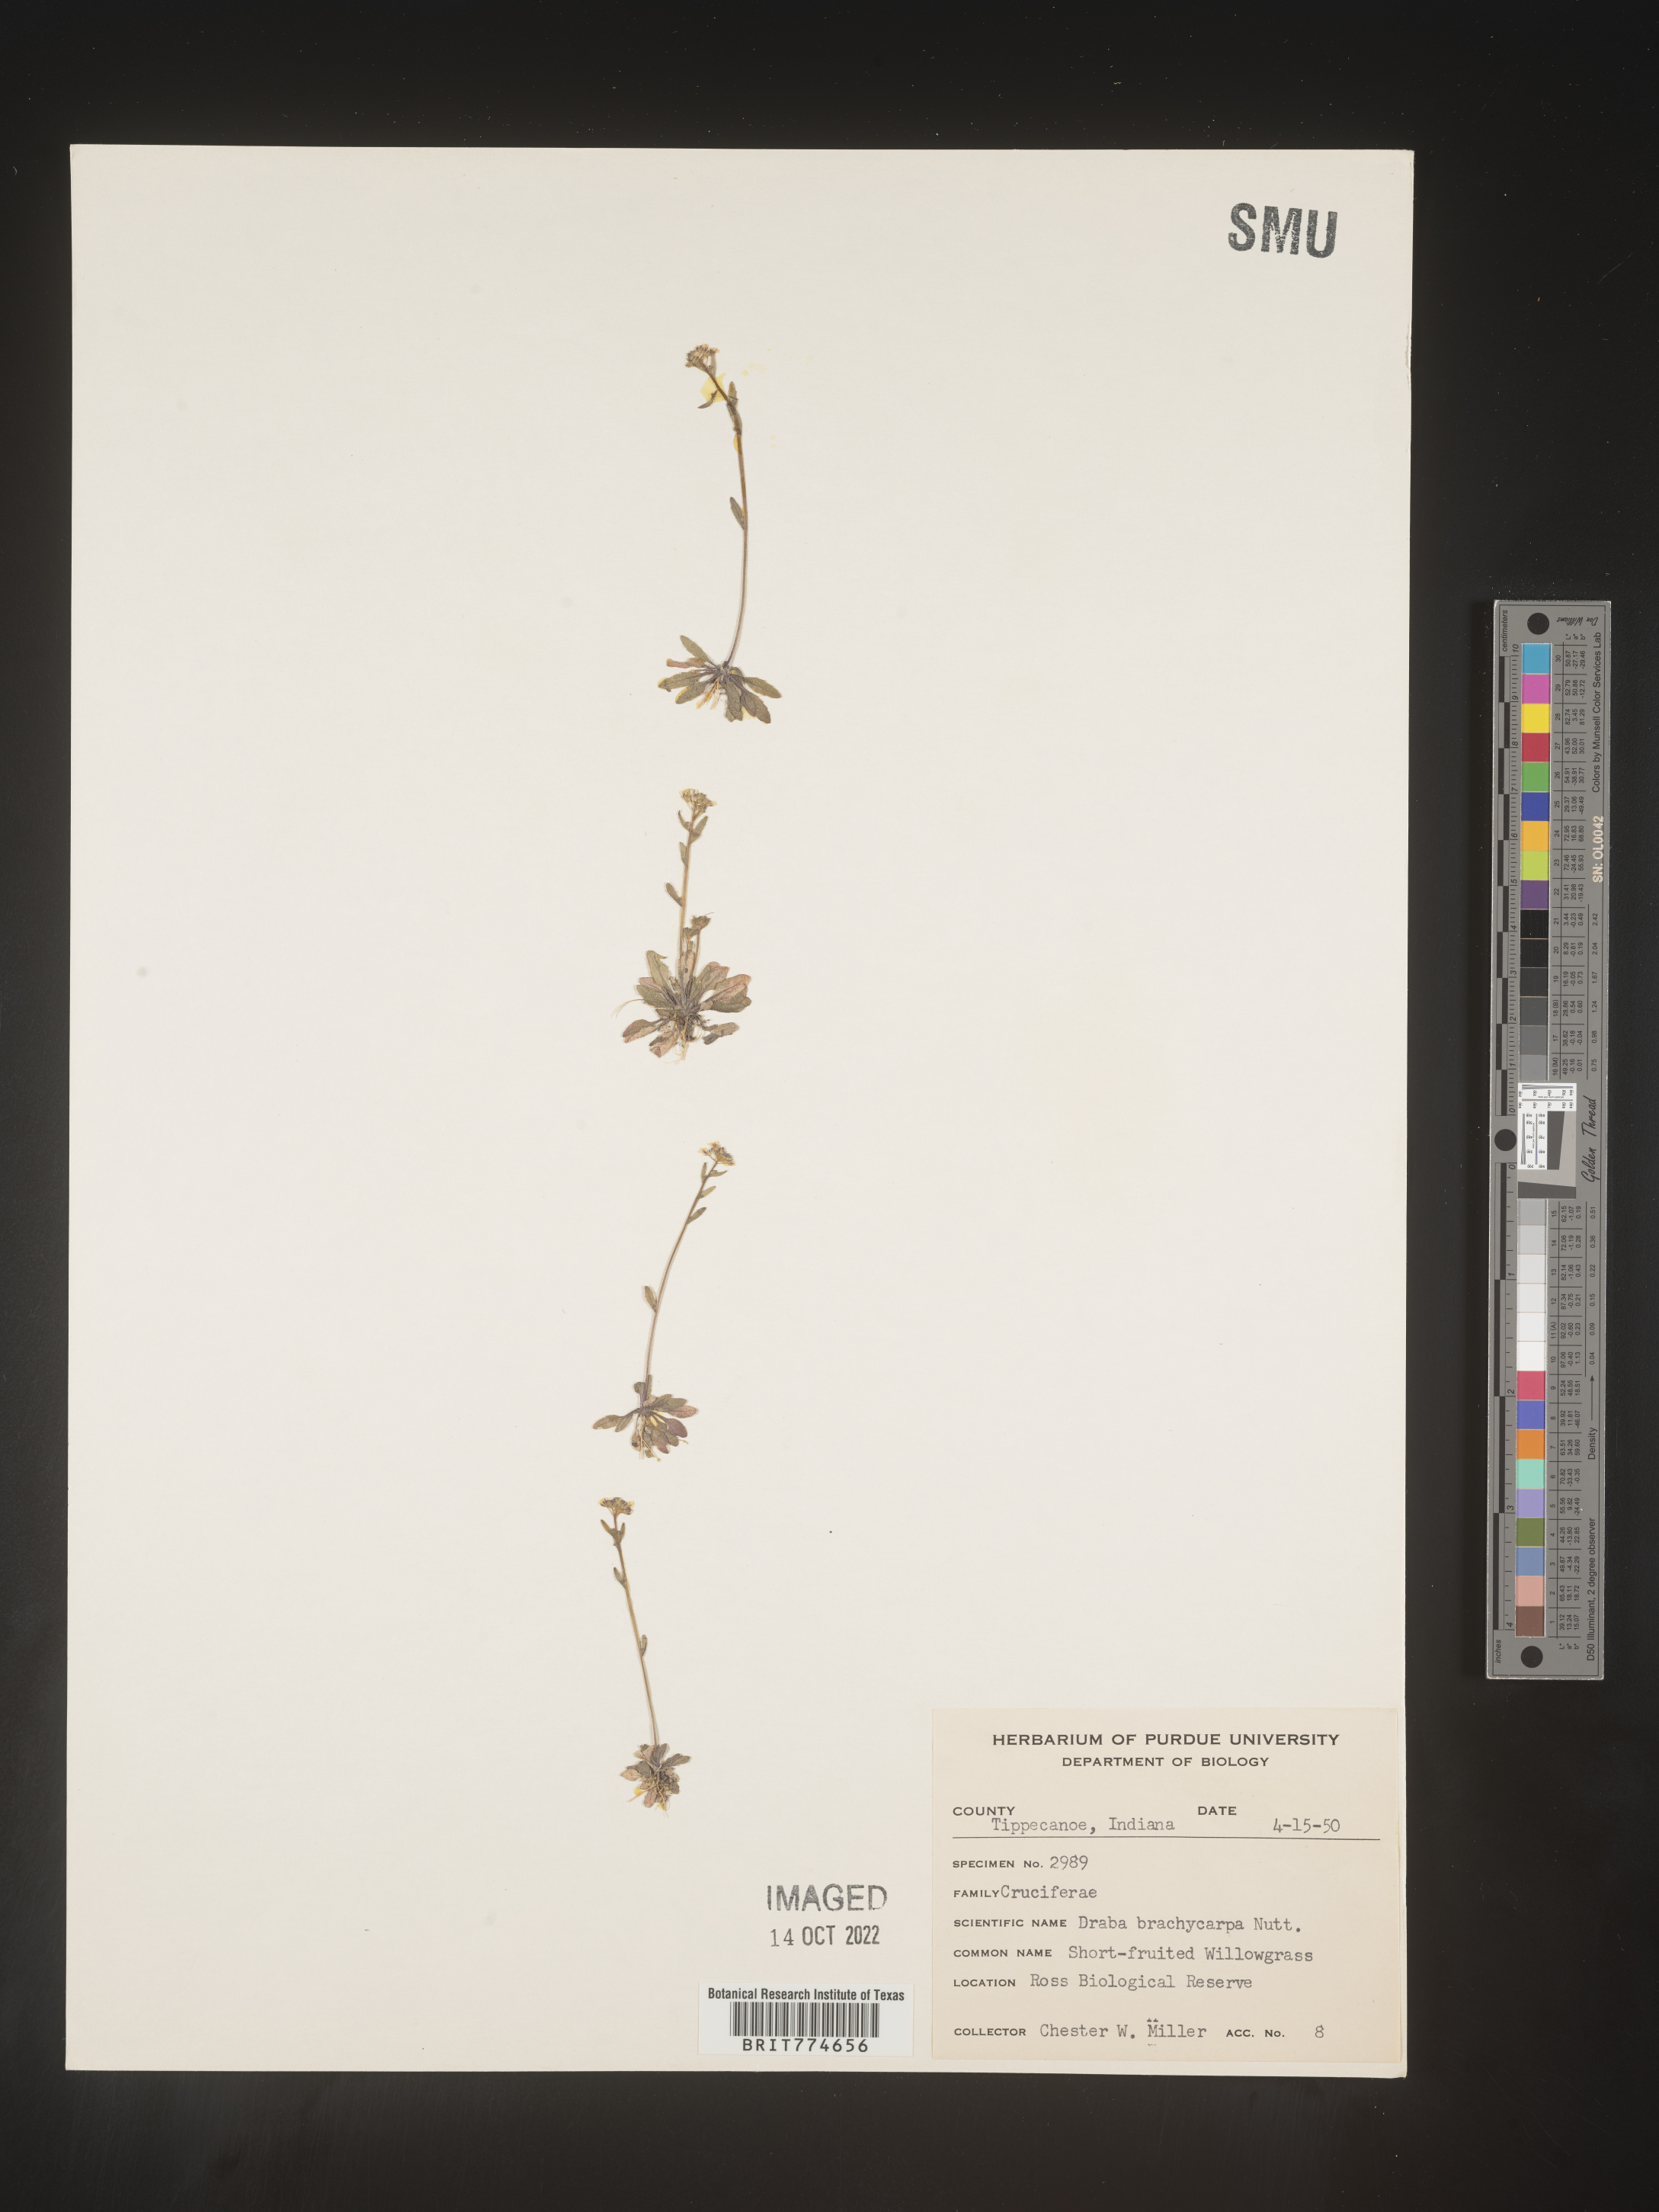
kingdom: Plantae
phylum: Tracheophyta
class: Magnoliopsida
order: Brassicales
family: Brassicaceae
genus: Abdra
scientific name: Abdra brachycarpa
